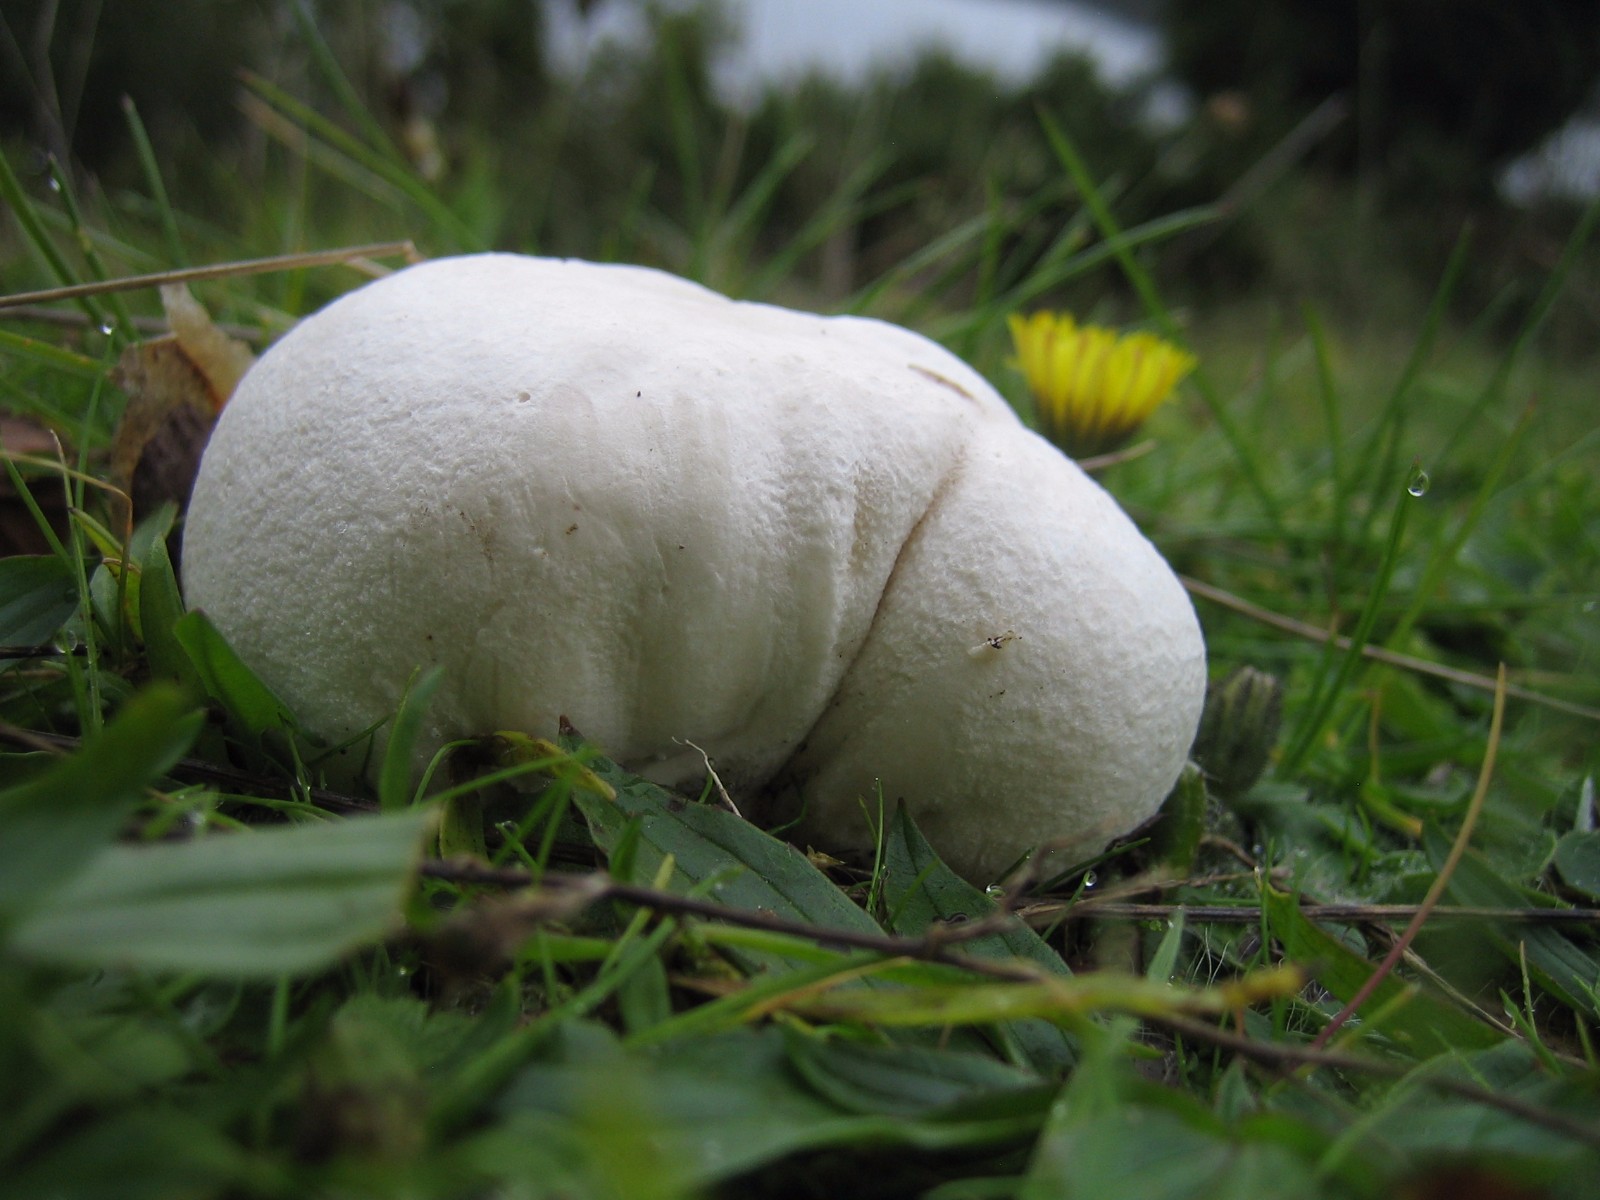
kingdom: Fungi
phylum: Basidiomycota
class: Agaricomycetes
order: Agaricales
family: Lycoperdaceae
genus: Bovista
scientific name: Bovista
